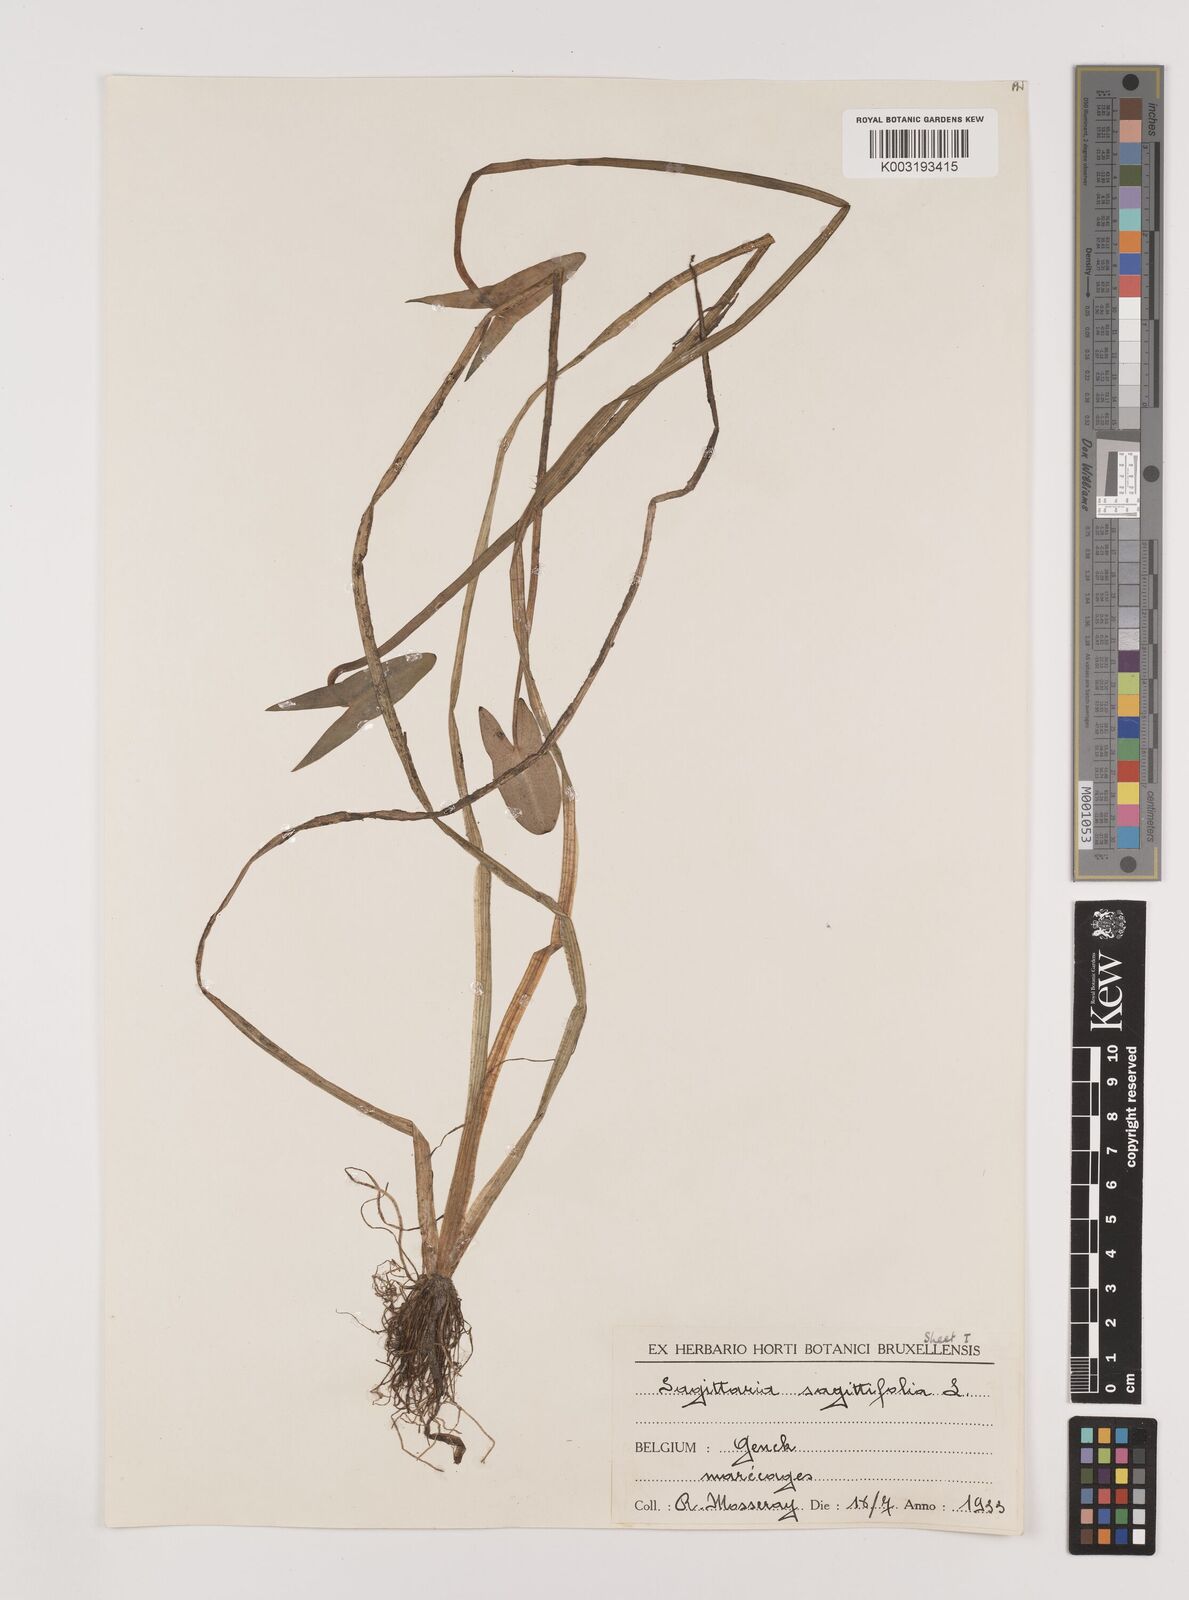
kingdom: Plantae
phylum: Tracheophyta
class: Liliopsida
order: Alismatales
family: Alismataceae
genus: Sagittaria
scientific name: Sagittaria sagittifolia
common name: Arrowhead
